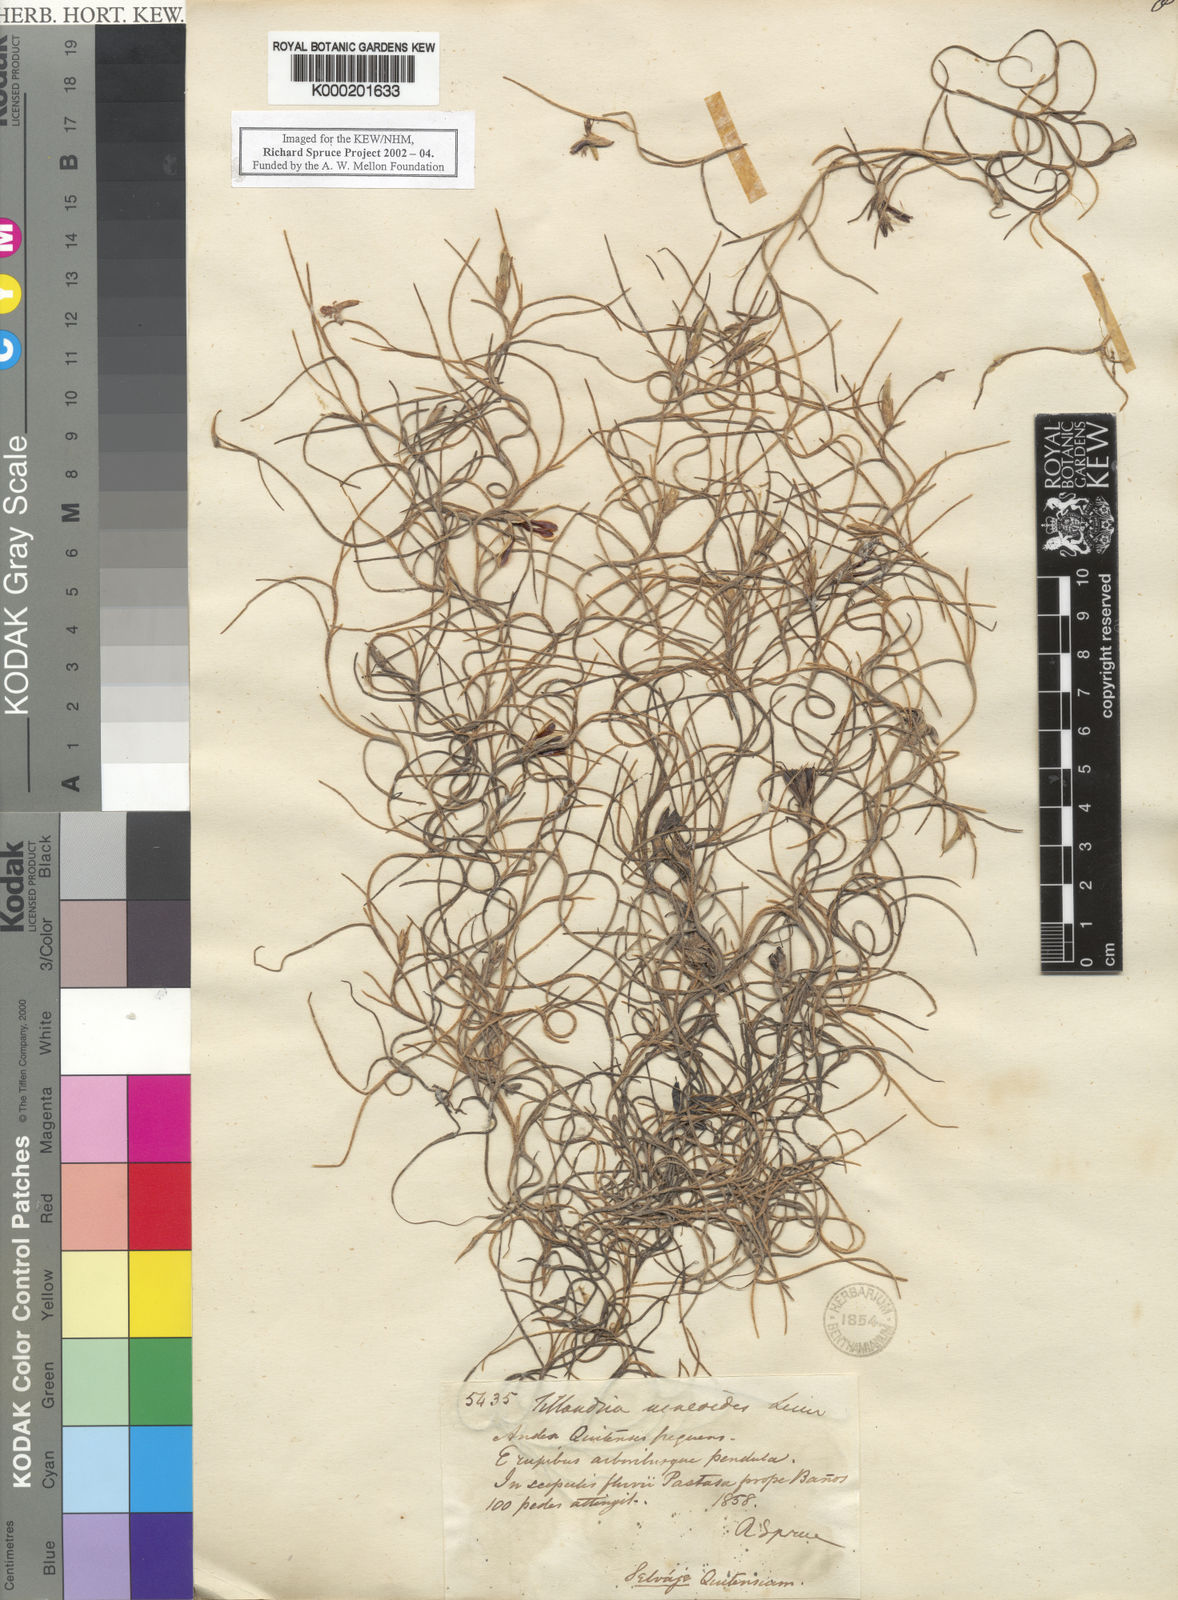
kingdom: Plantae
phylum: Tracheophyta
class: Liliopsida
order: Poales
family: Bromeliaceae
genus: Tillandsia
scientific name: Tillandsia usneoides
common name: Spanish moss
